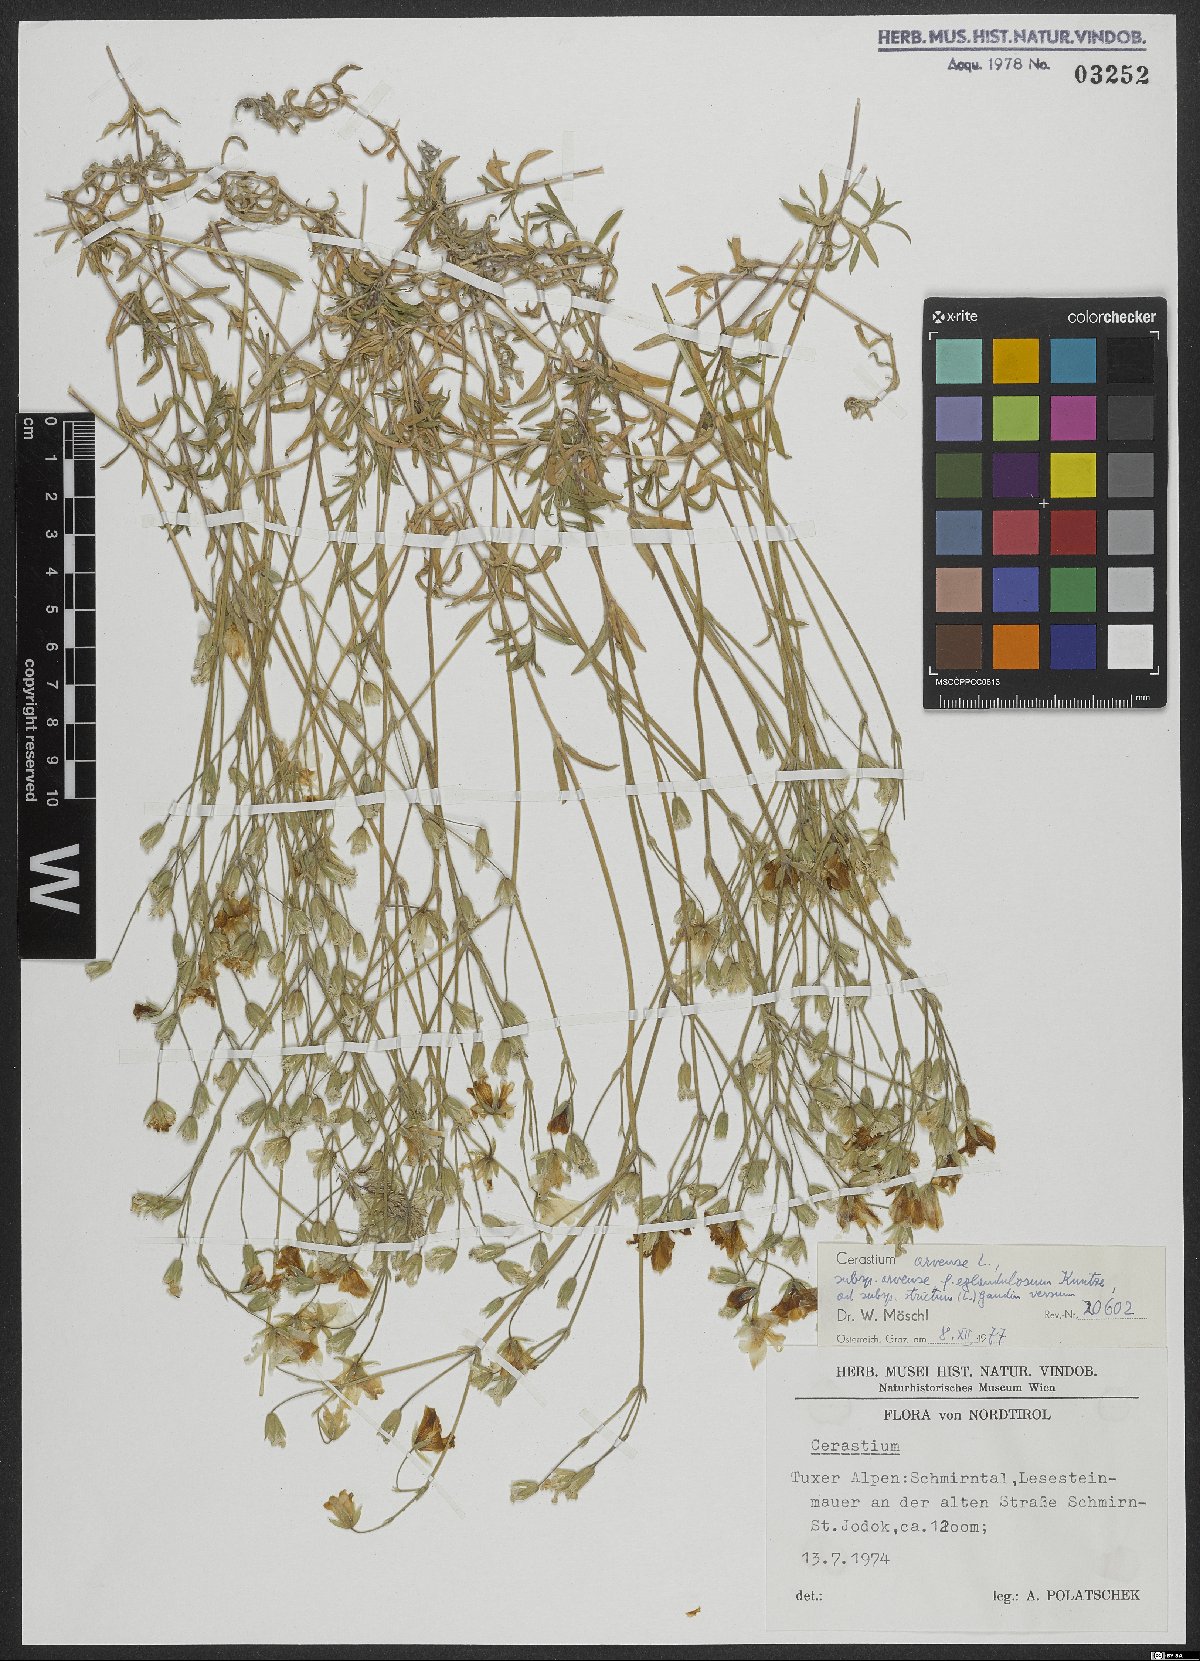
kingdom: Plantae
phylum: Tracheophyta
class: Magnoliopsida
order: Caryophyllales
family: Caryophyllaceae
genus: Cerastium
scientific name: Cerastium arvense
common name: Field mouse-ear
